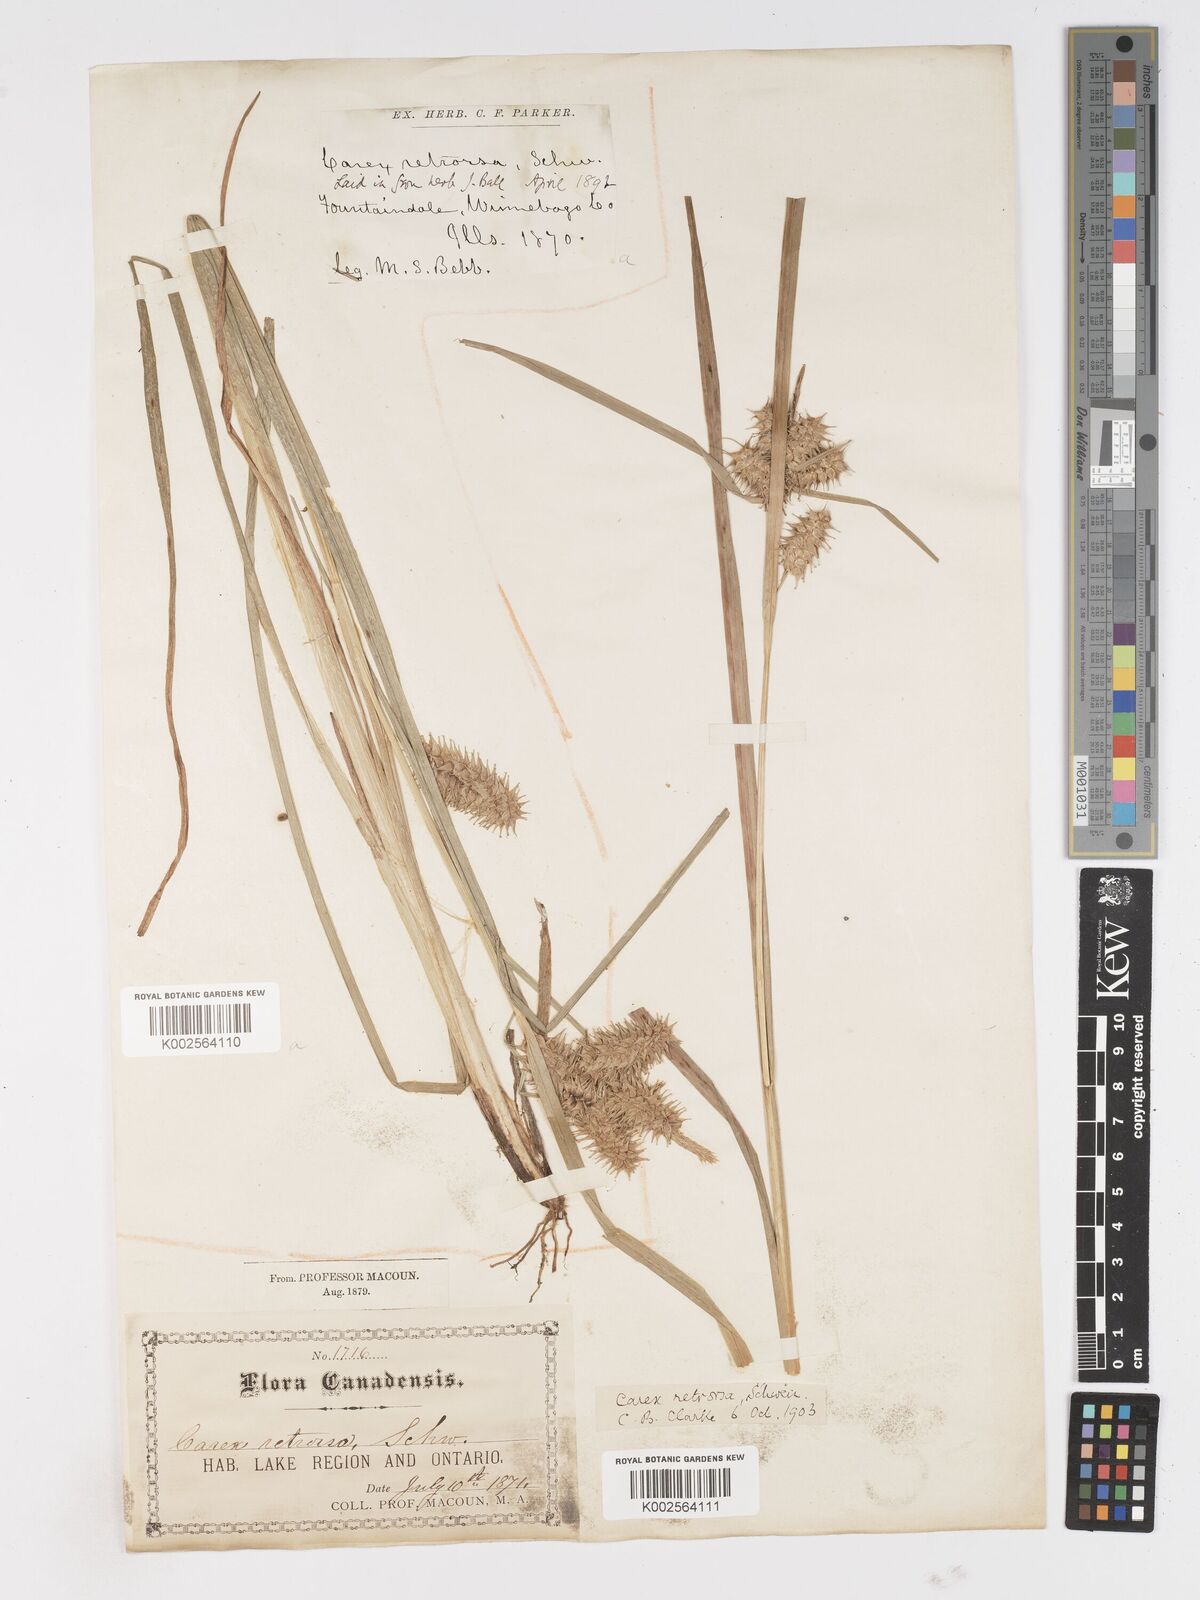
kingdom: Plantae
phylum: Tracheophyta
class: Liliopsida
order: Poales
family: Cyperaceae
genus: Carex
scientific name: Carex retrorsa
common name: Knot-sheath sedge
